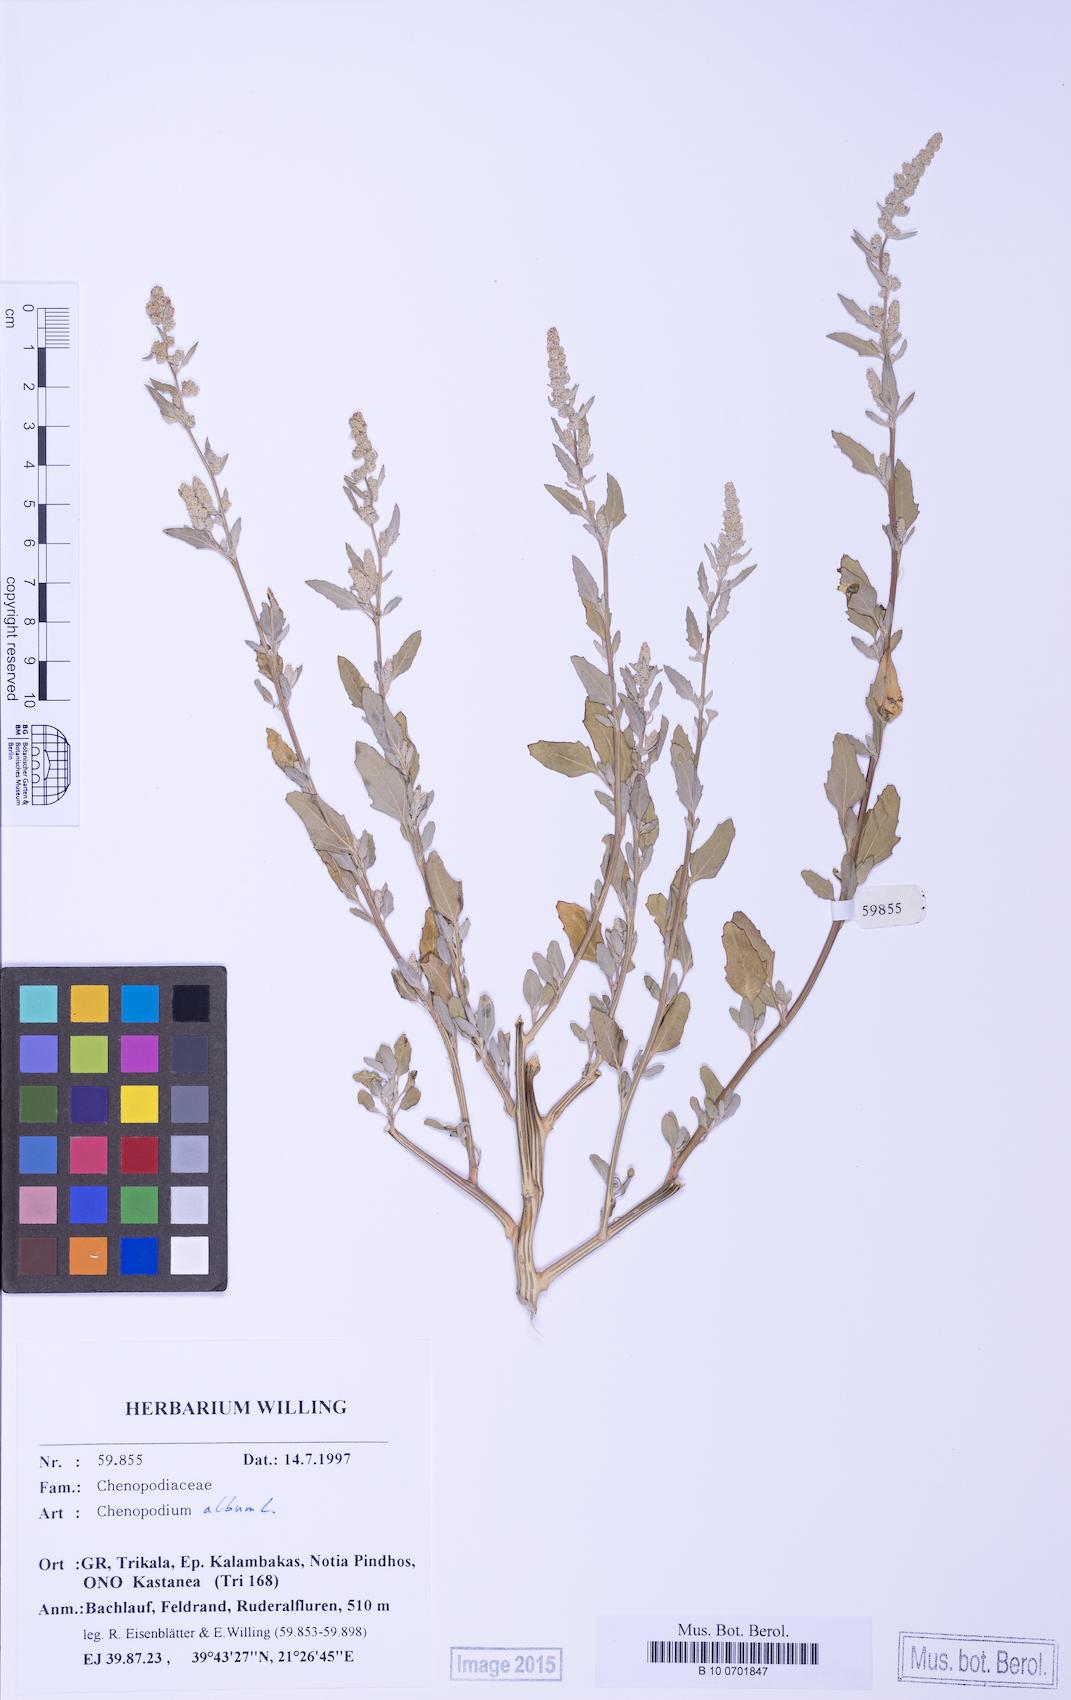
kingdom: Plantae
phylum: Tracheophyta
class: Magnoliopsida
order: Caryophyllales
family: Amaranthaceae
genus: Chenopodium
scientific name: Chenopodium betaceum
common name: Striped goosefoot
